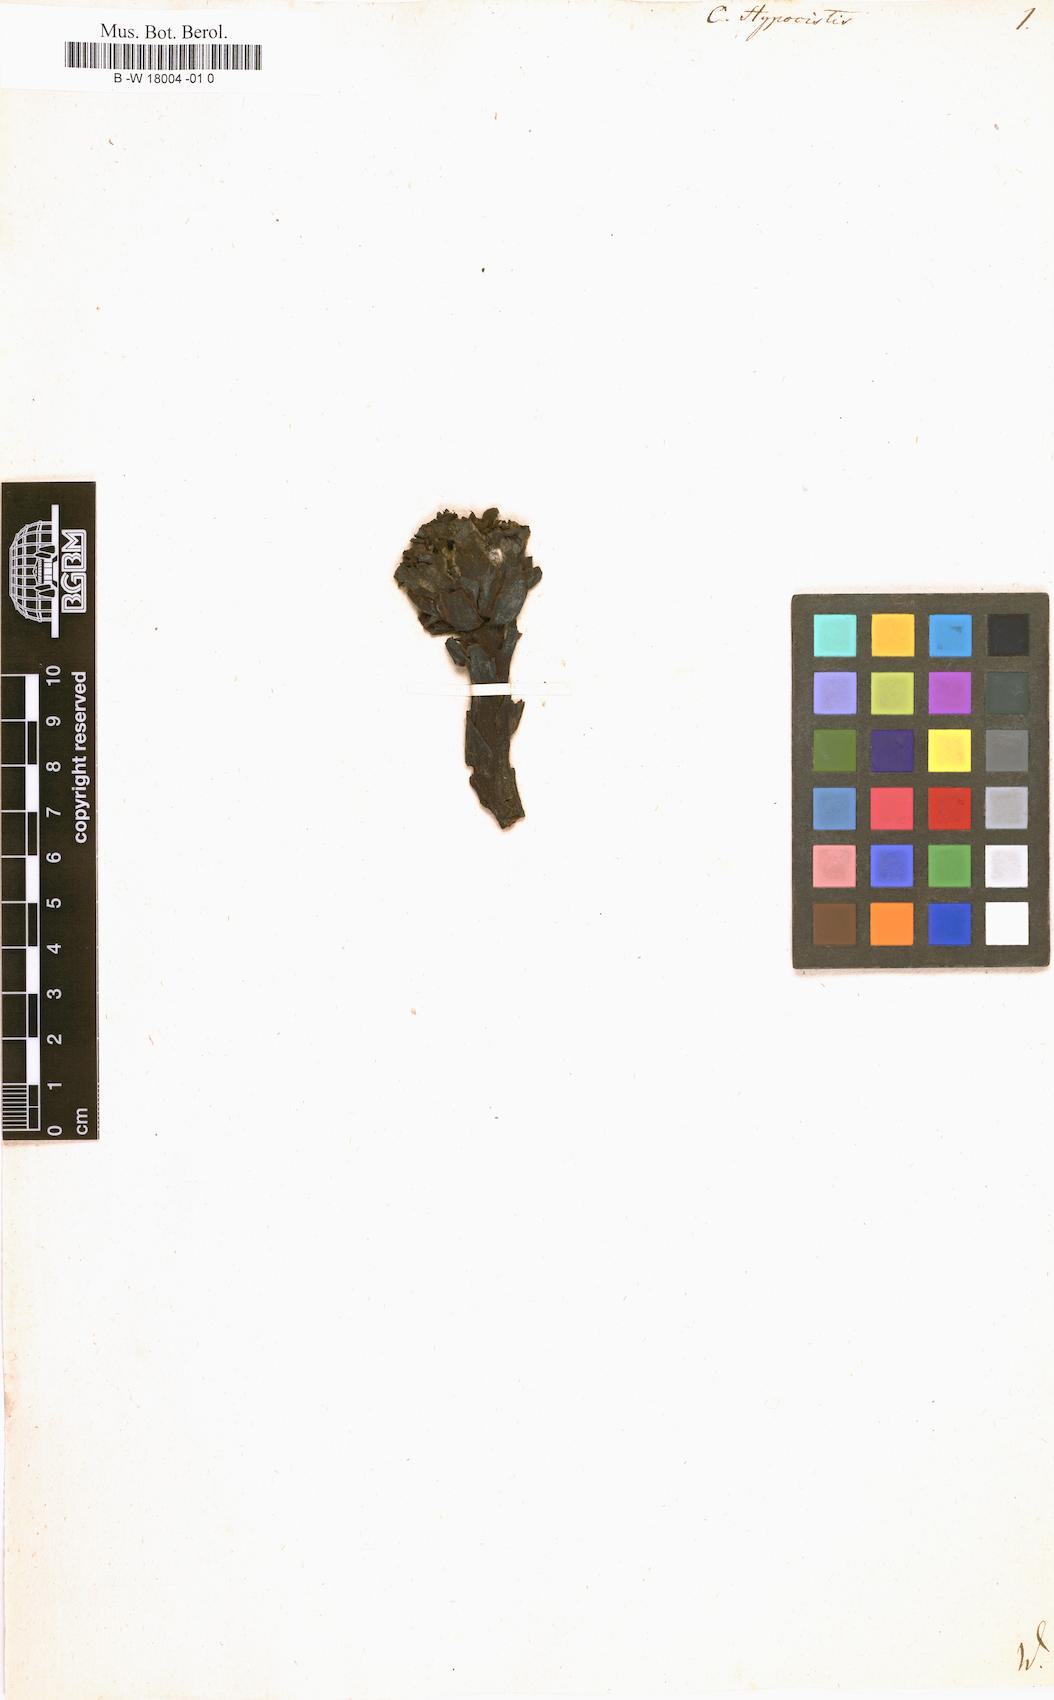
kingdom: Plantae
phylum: Tracheophyta
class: Magnoliopsida
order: Malvales
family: Cytinaceae
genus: Cytinus
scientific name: Cytinus hypocistis
